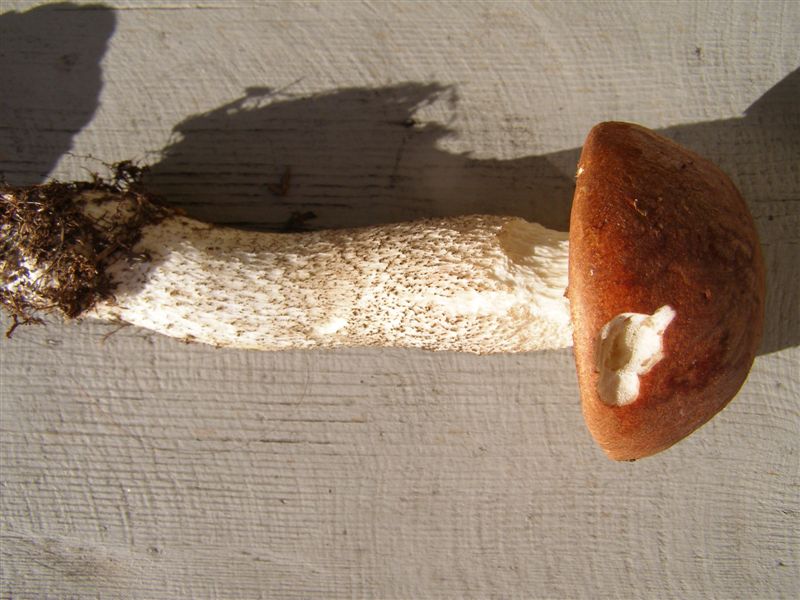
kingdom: Fungi
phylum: Basidiomycota
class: Agaricomycetes
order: Boletales
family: Boletaceae
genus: Leccinum
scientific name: Leccinum vulpinum
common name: fyrre-skælrørhat
